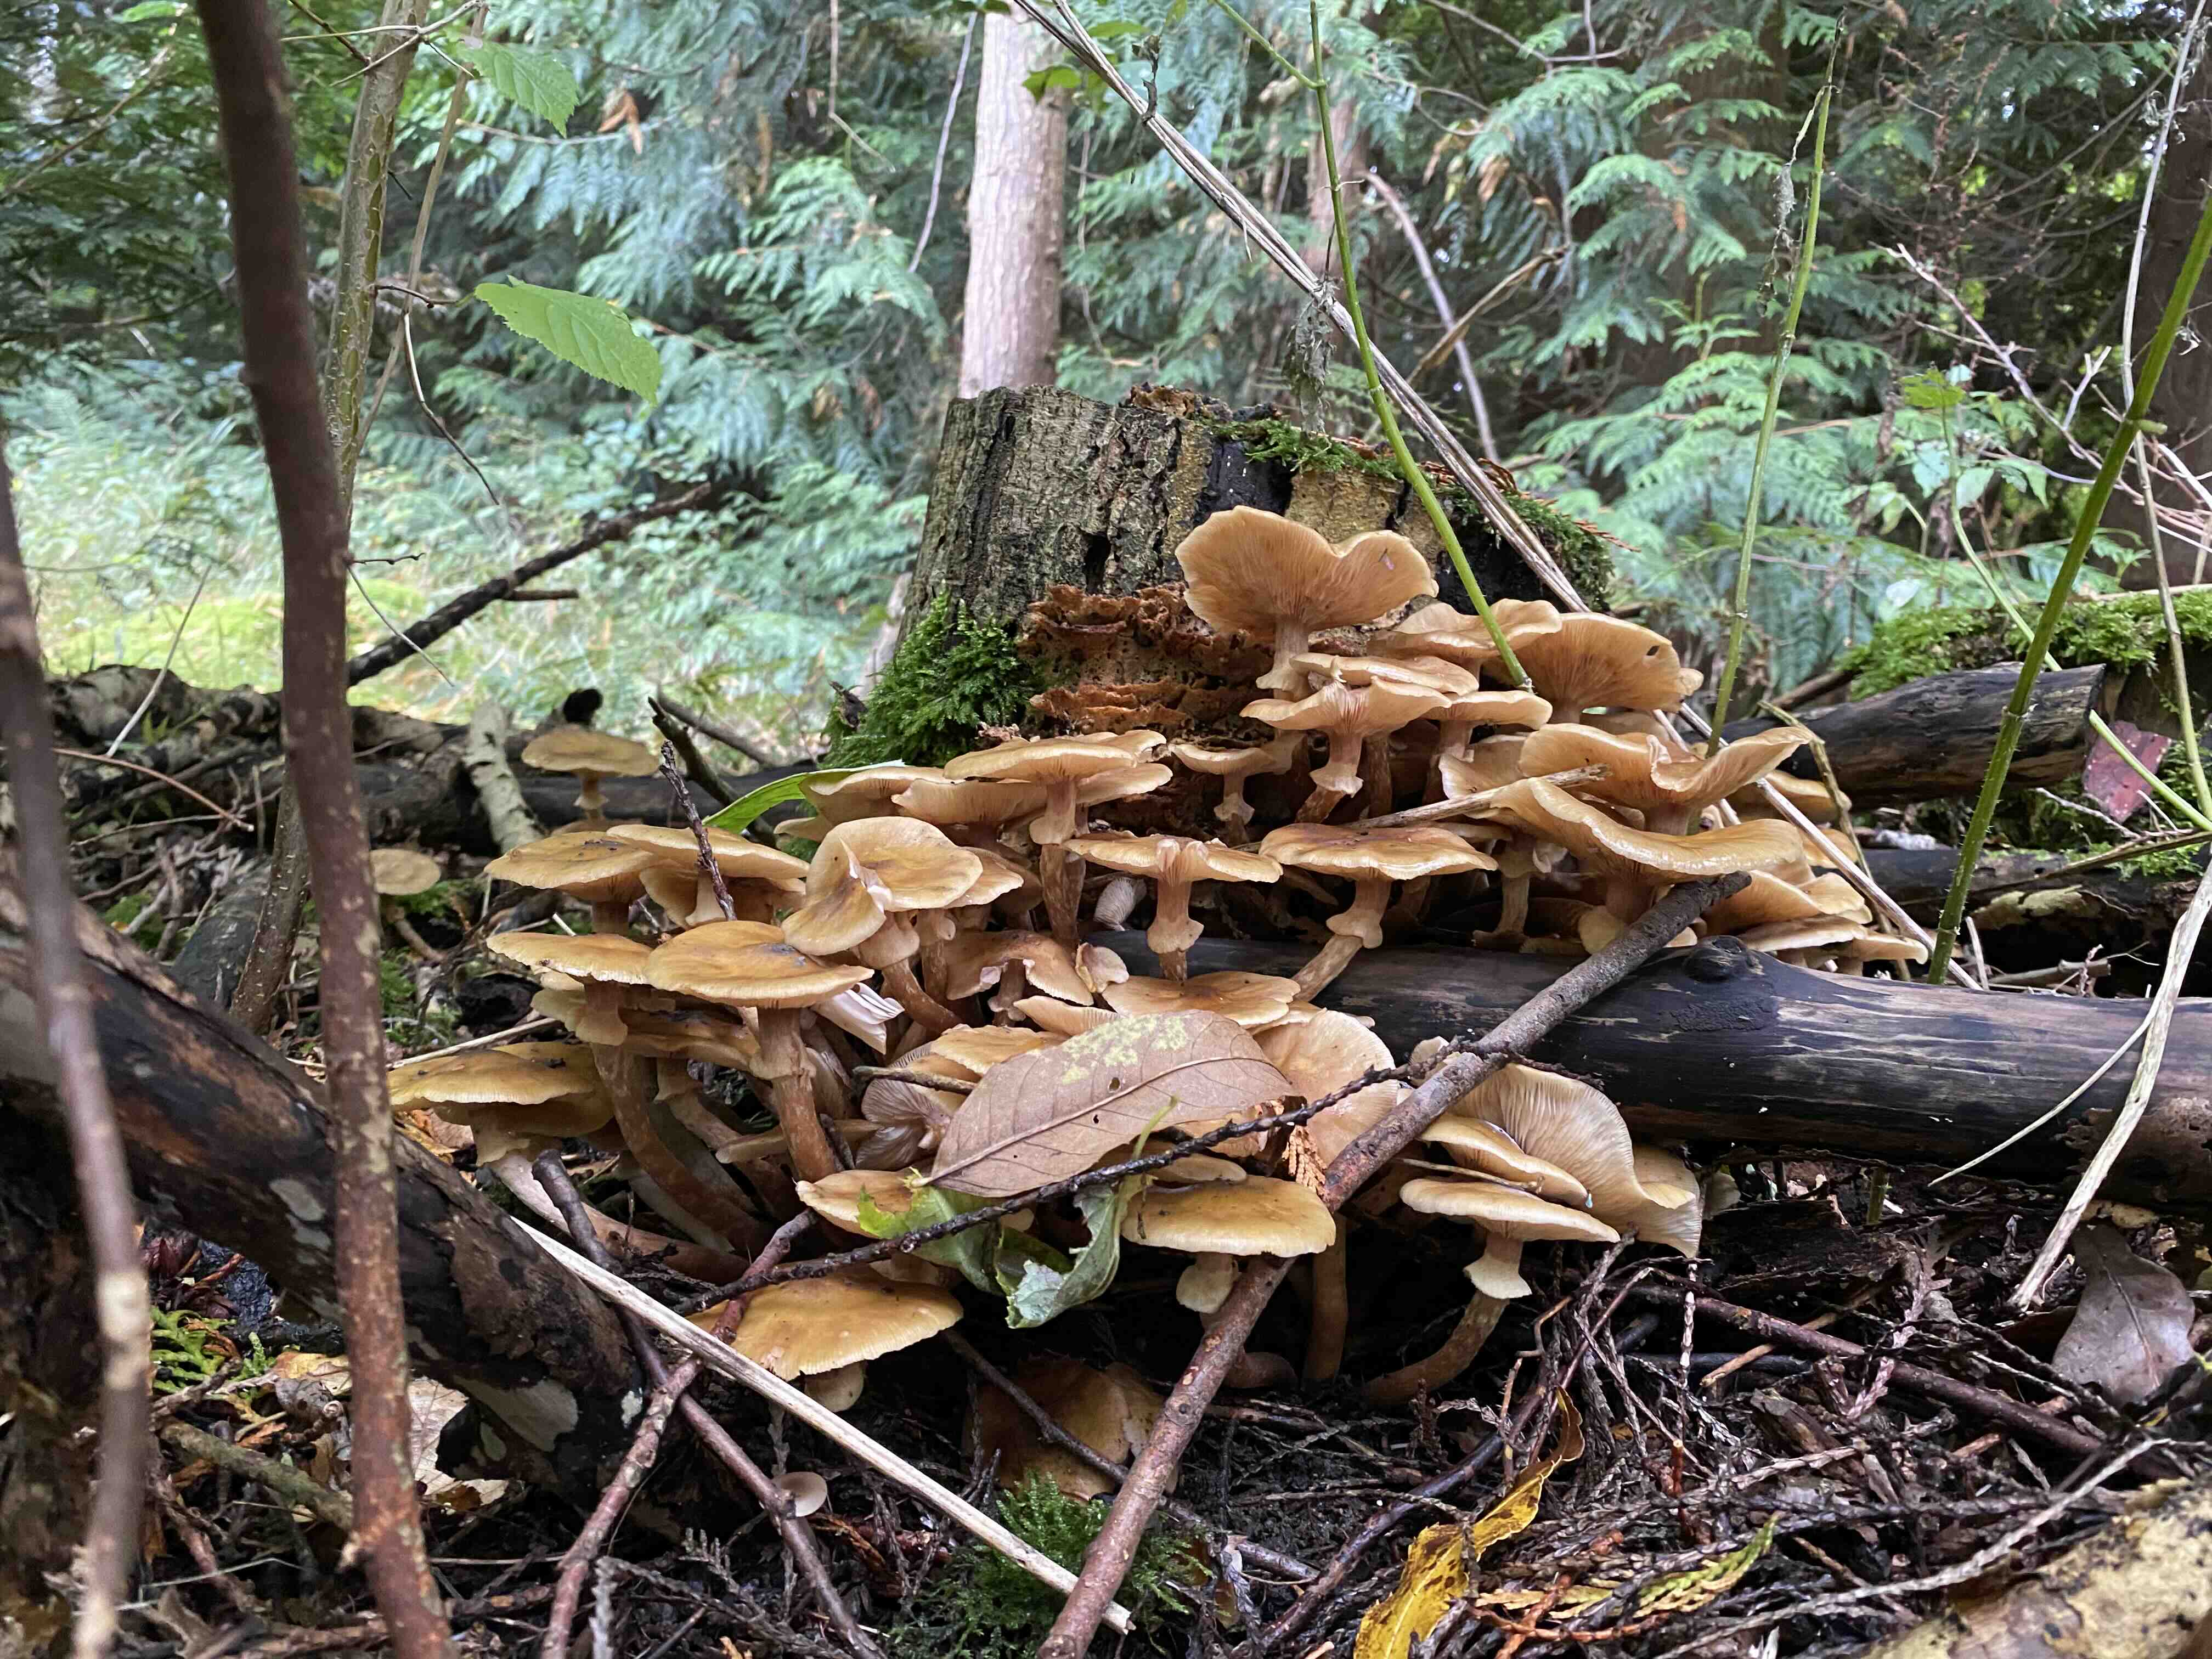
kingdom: Fungi
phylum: Basidiomycota
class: Agaricomycetes
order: Agaricales
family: Physalacriaceae
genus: Armillaria
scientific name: Armillaria mellea
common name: ægte honningsvamp
